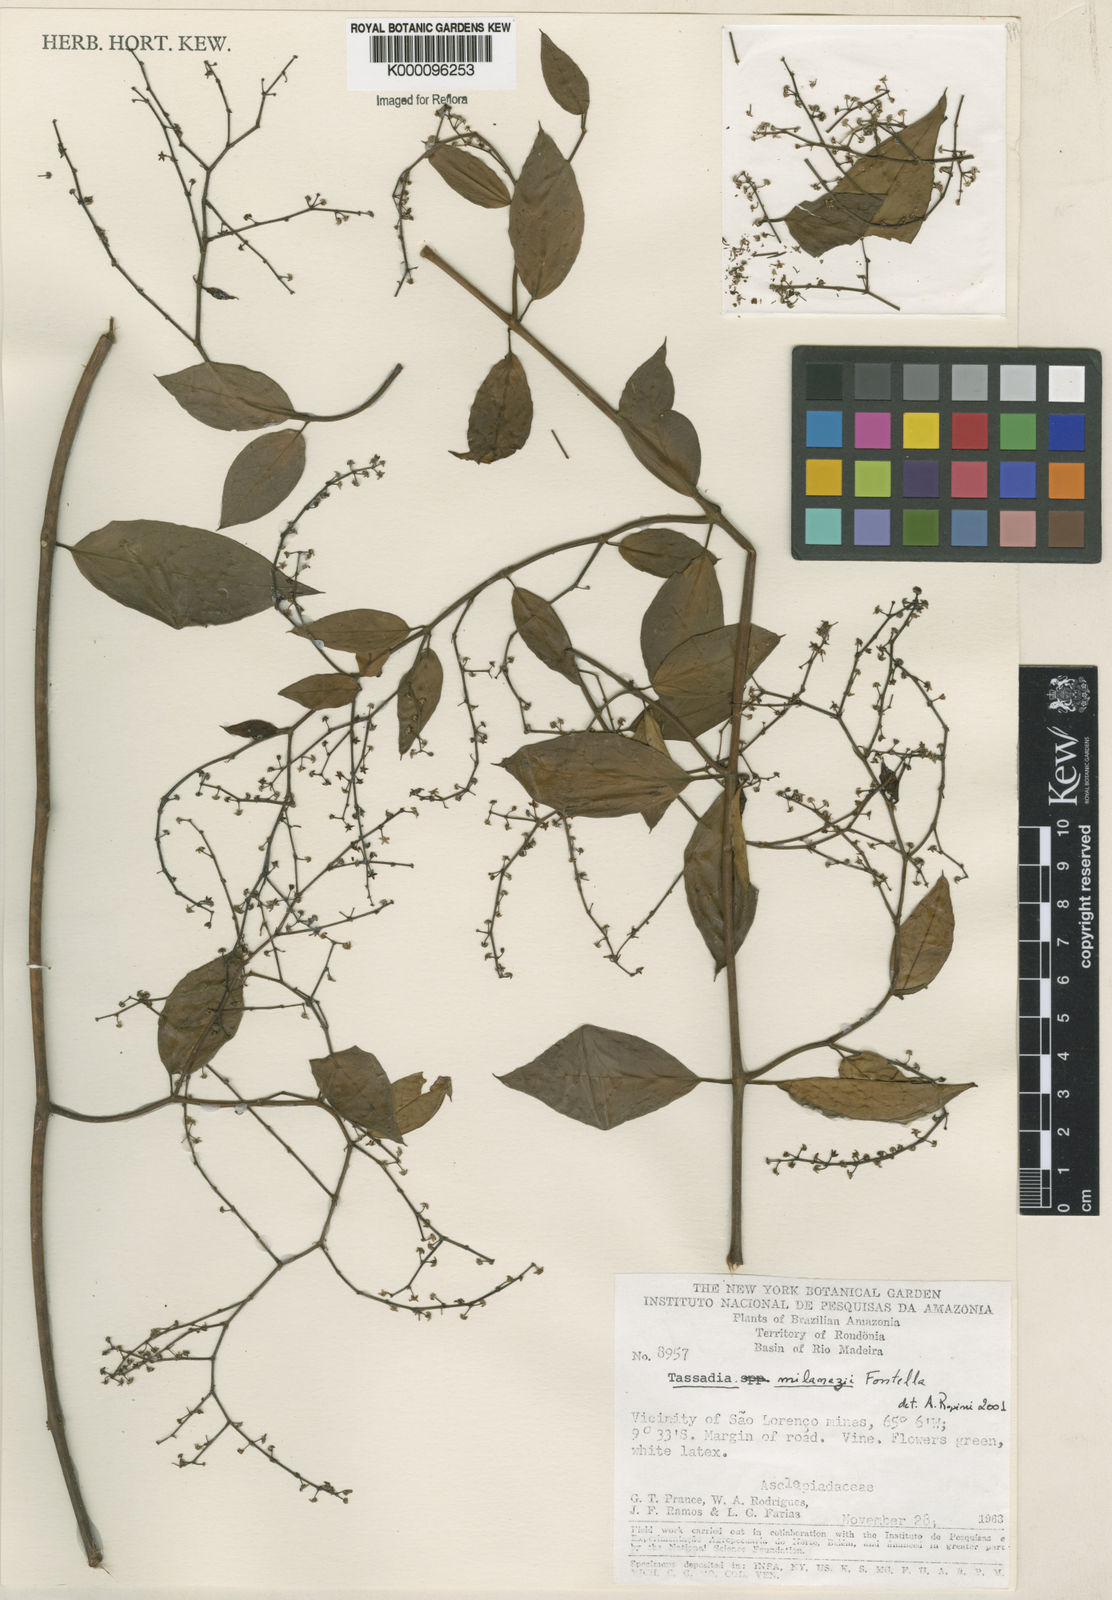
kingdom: Plantae
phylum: Tracheophyta
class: Magnoliopsida
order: Gentianales
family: Apocynaceae
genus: Tassadia
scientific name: Tassadia milanezii
